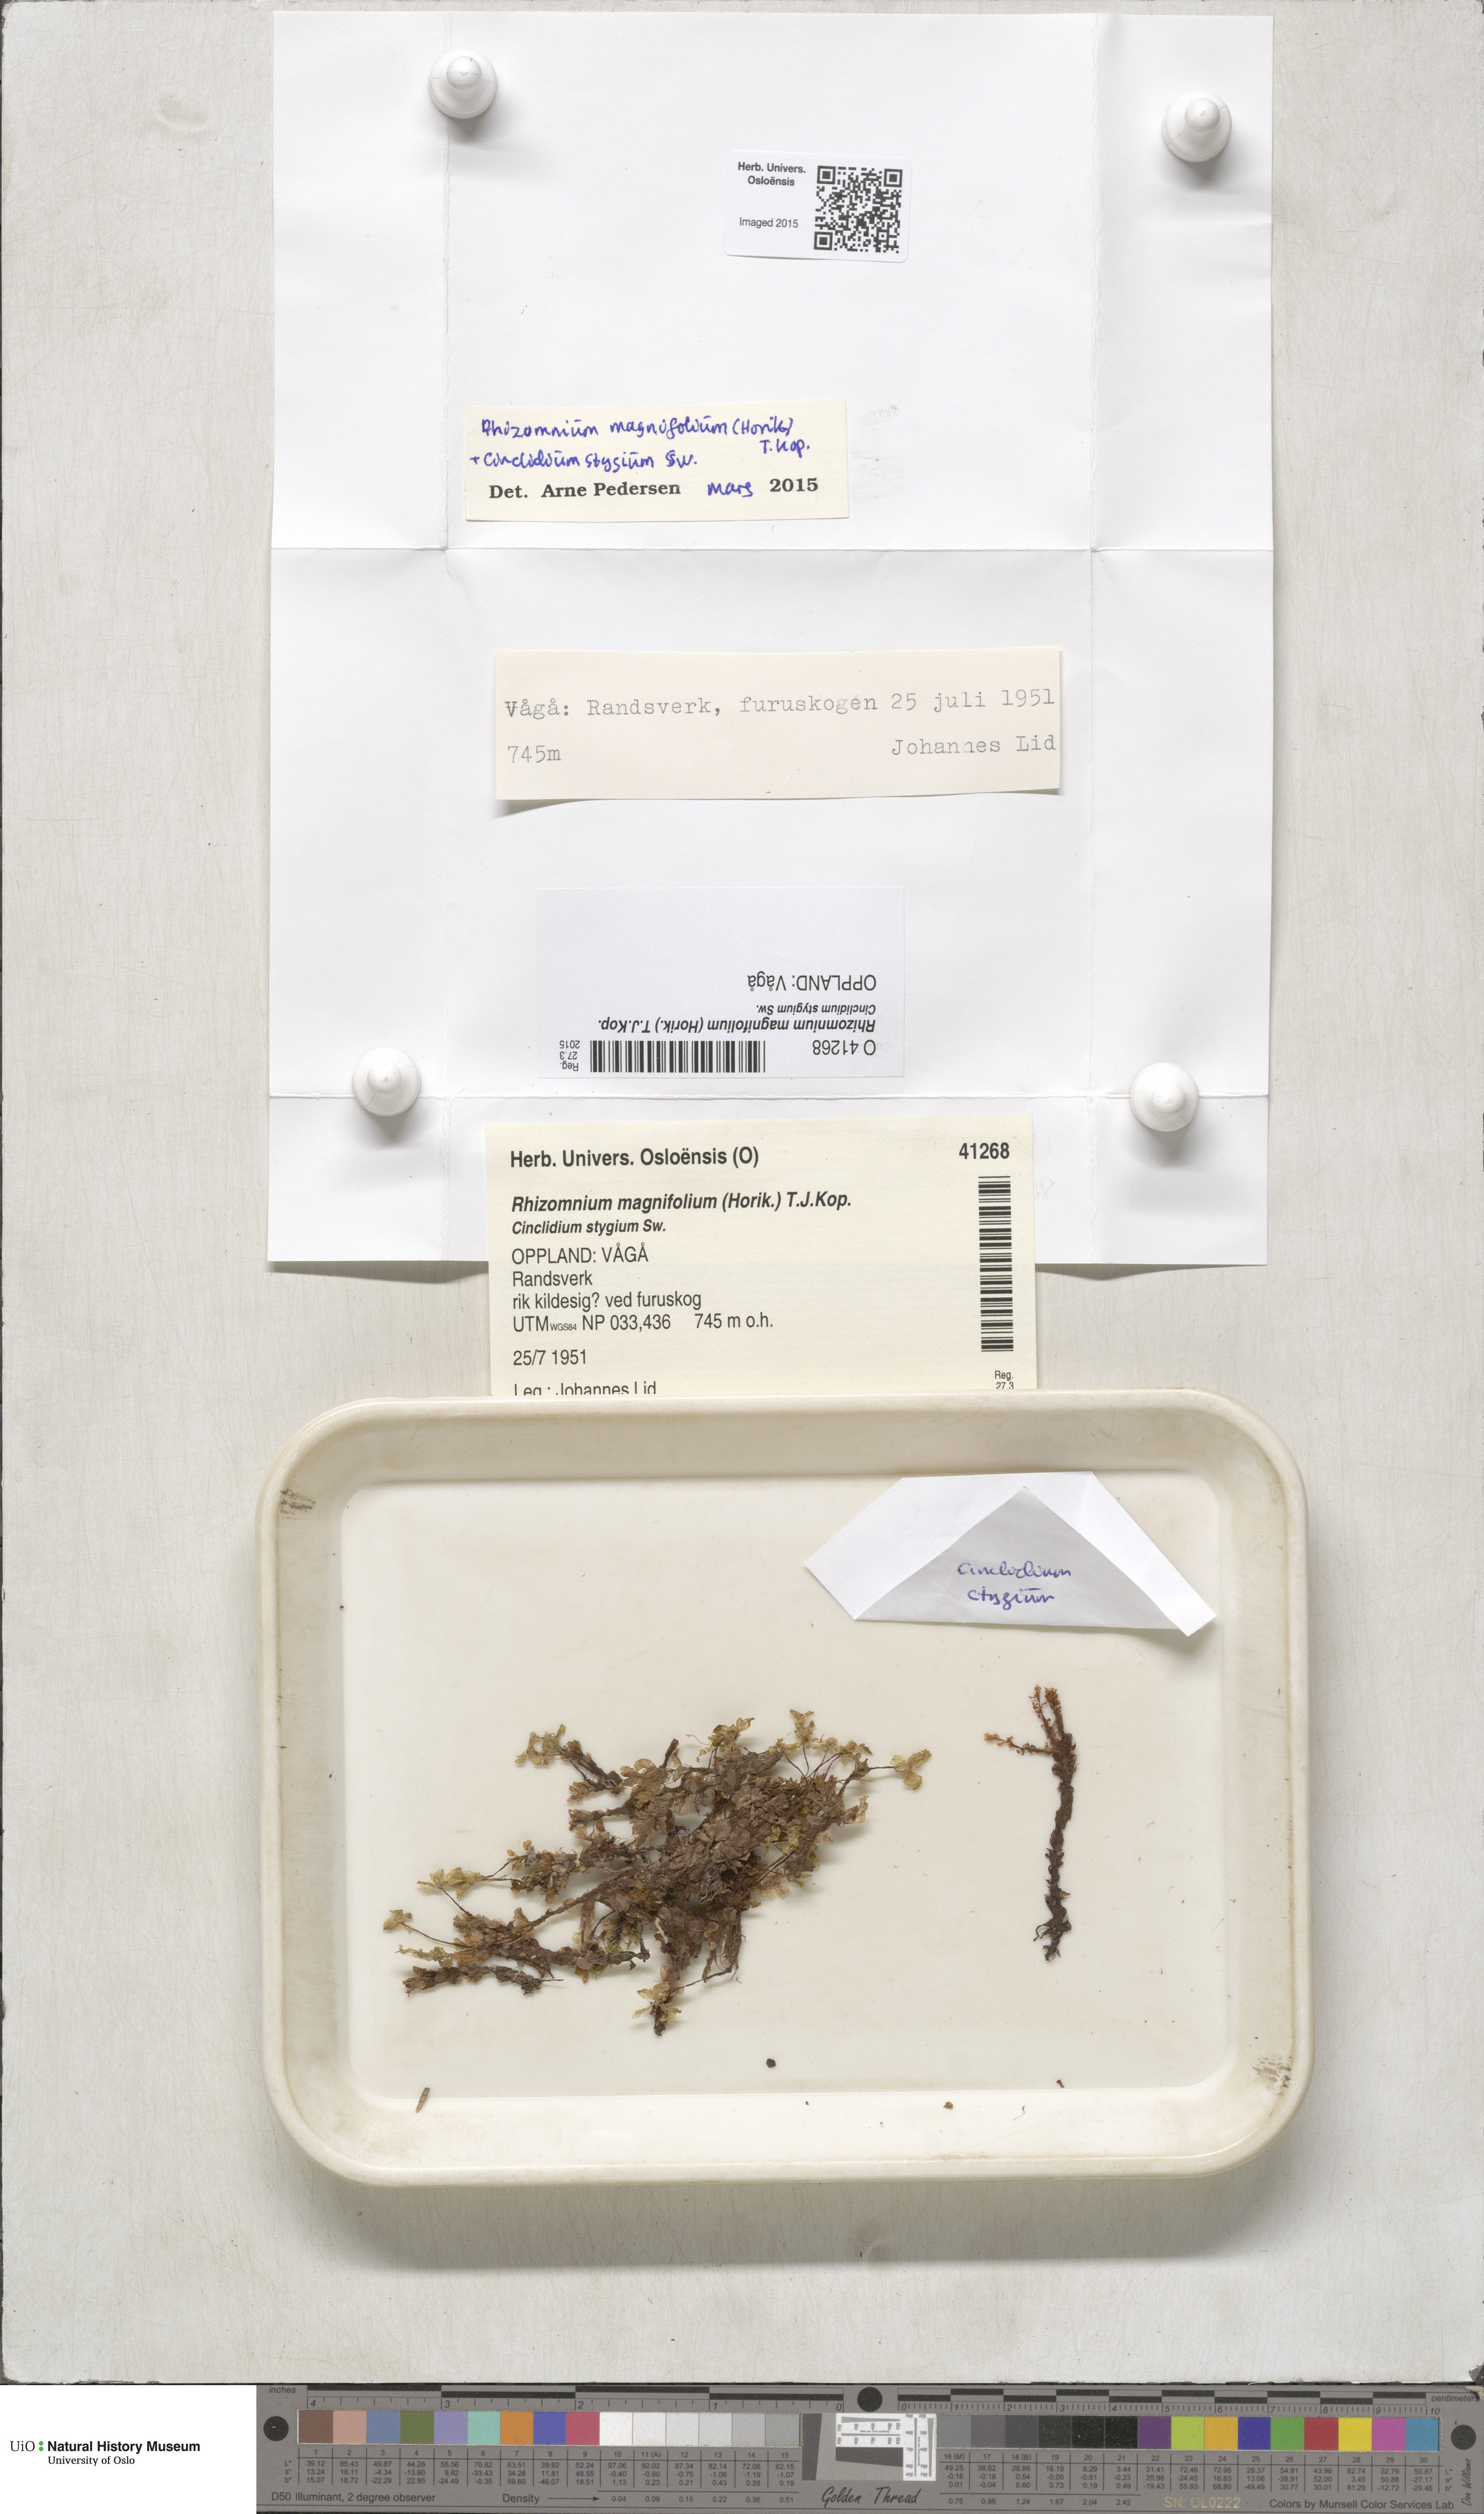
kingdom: Plantae
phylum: Bryophyta
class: Bryopsida
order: Bryales
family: Mniaceae
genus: Rhizomnium
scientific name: Rhizomnium magnifolium
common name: Large-leaved leafy moss
